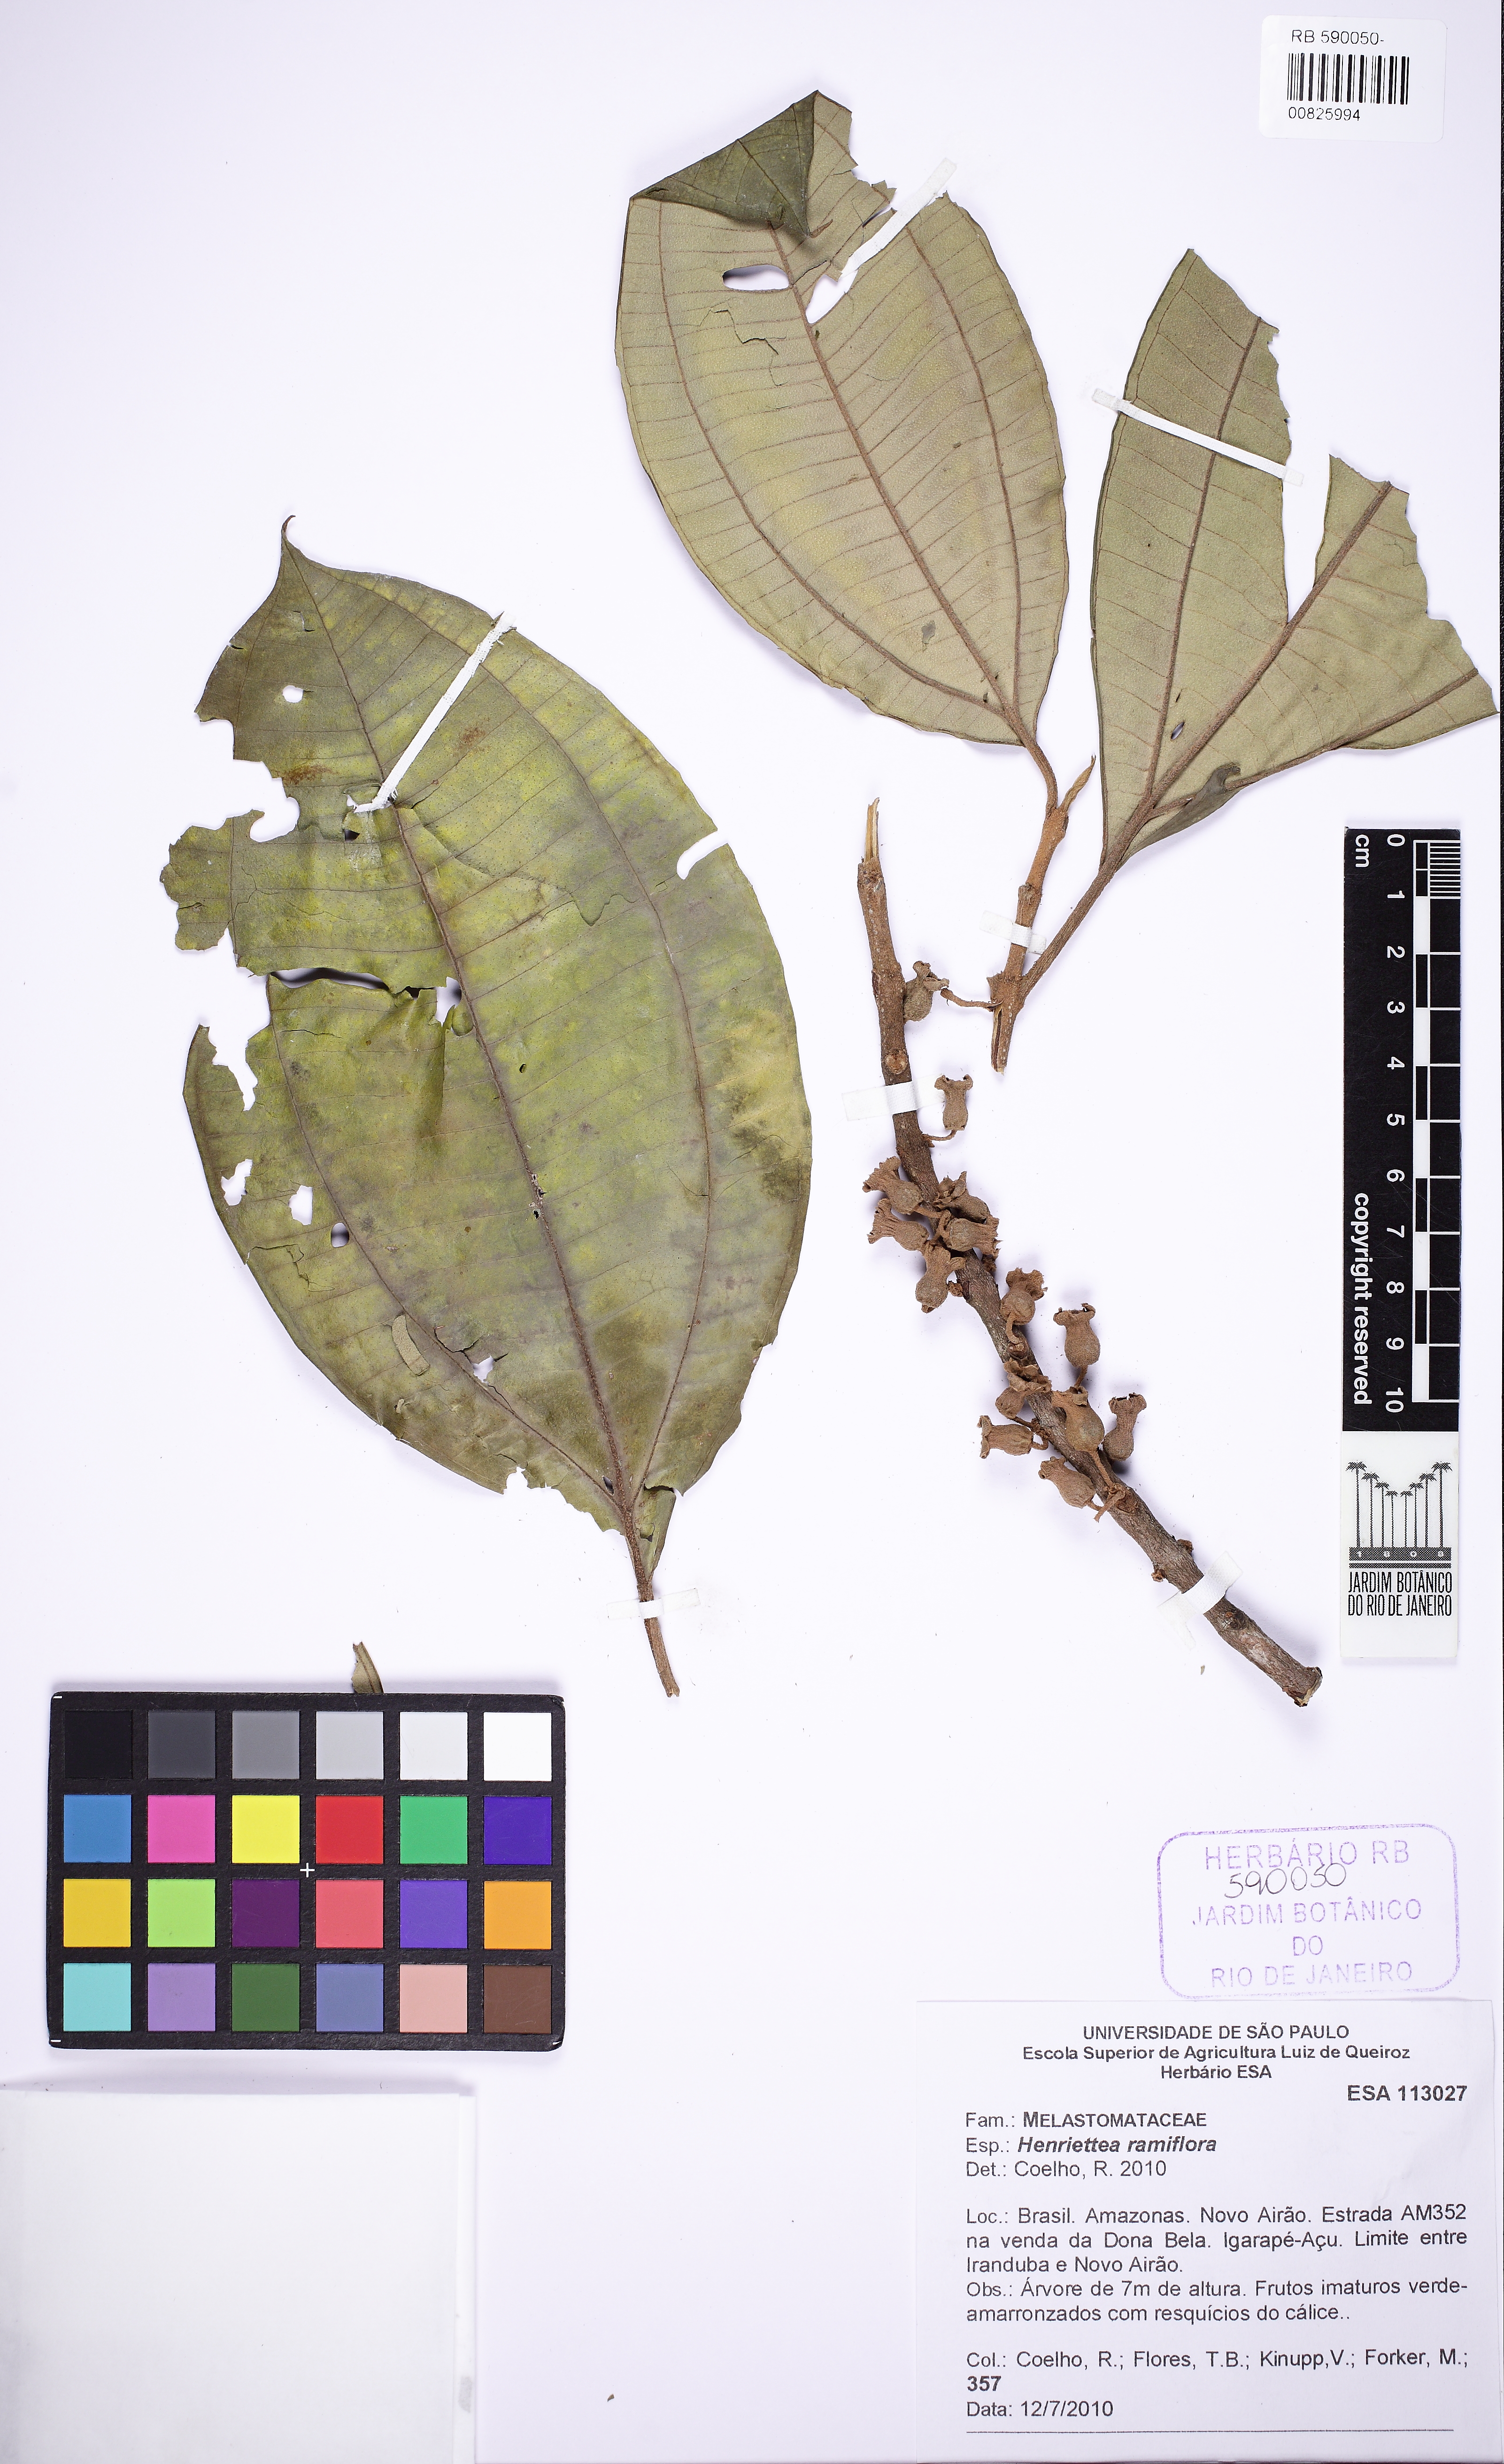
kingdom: Plantae
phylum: Tracheophyta
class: Magnoliopsida
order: Myrtales
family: Melastomataceae
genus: Henriettea
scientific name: Henriettea ramiflora
